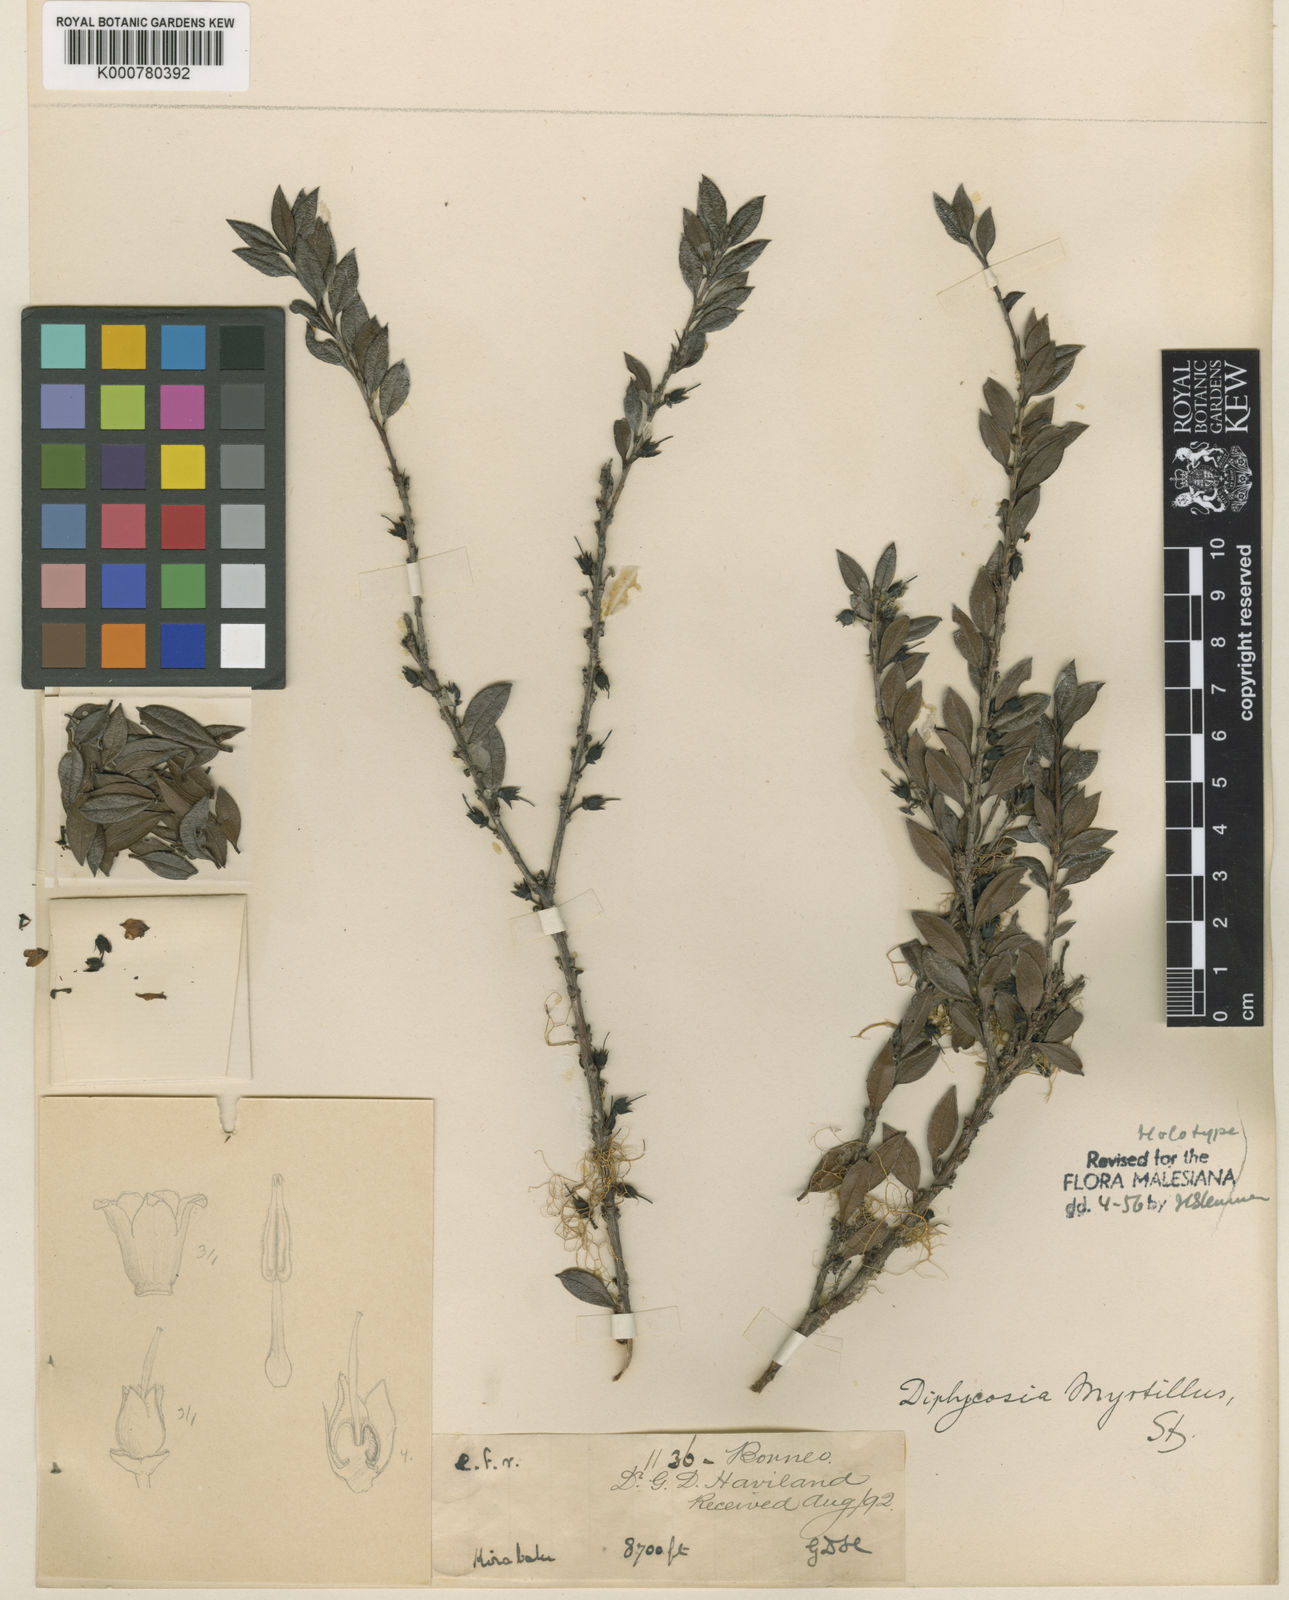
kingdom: Plantae
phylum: Tracheophyta
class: Magnoliopsida
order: Ericales
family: Ericaceae
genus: Gaultheria
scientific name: Gaultheria myrtillus
